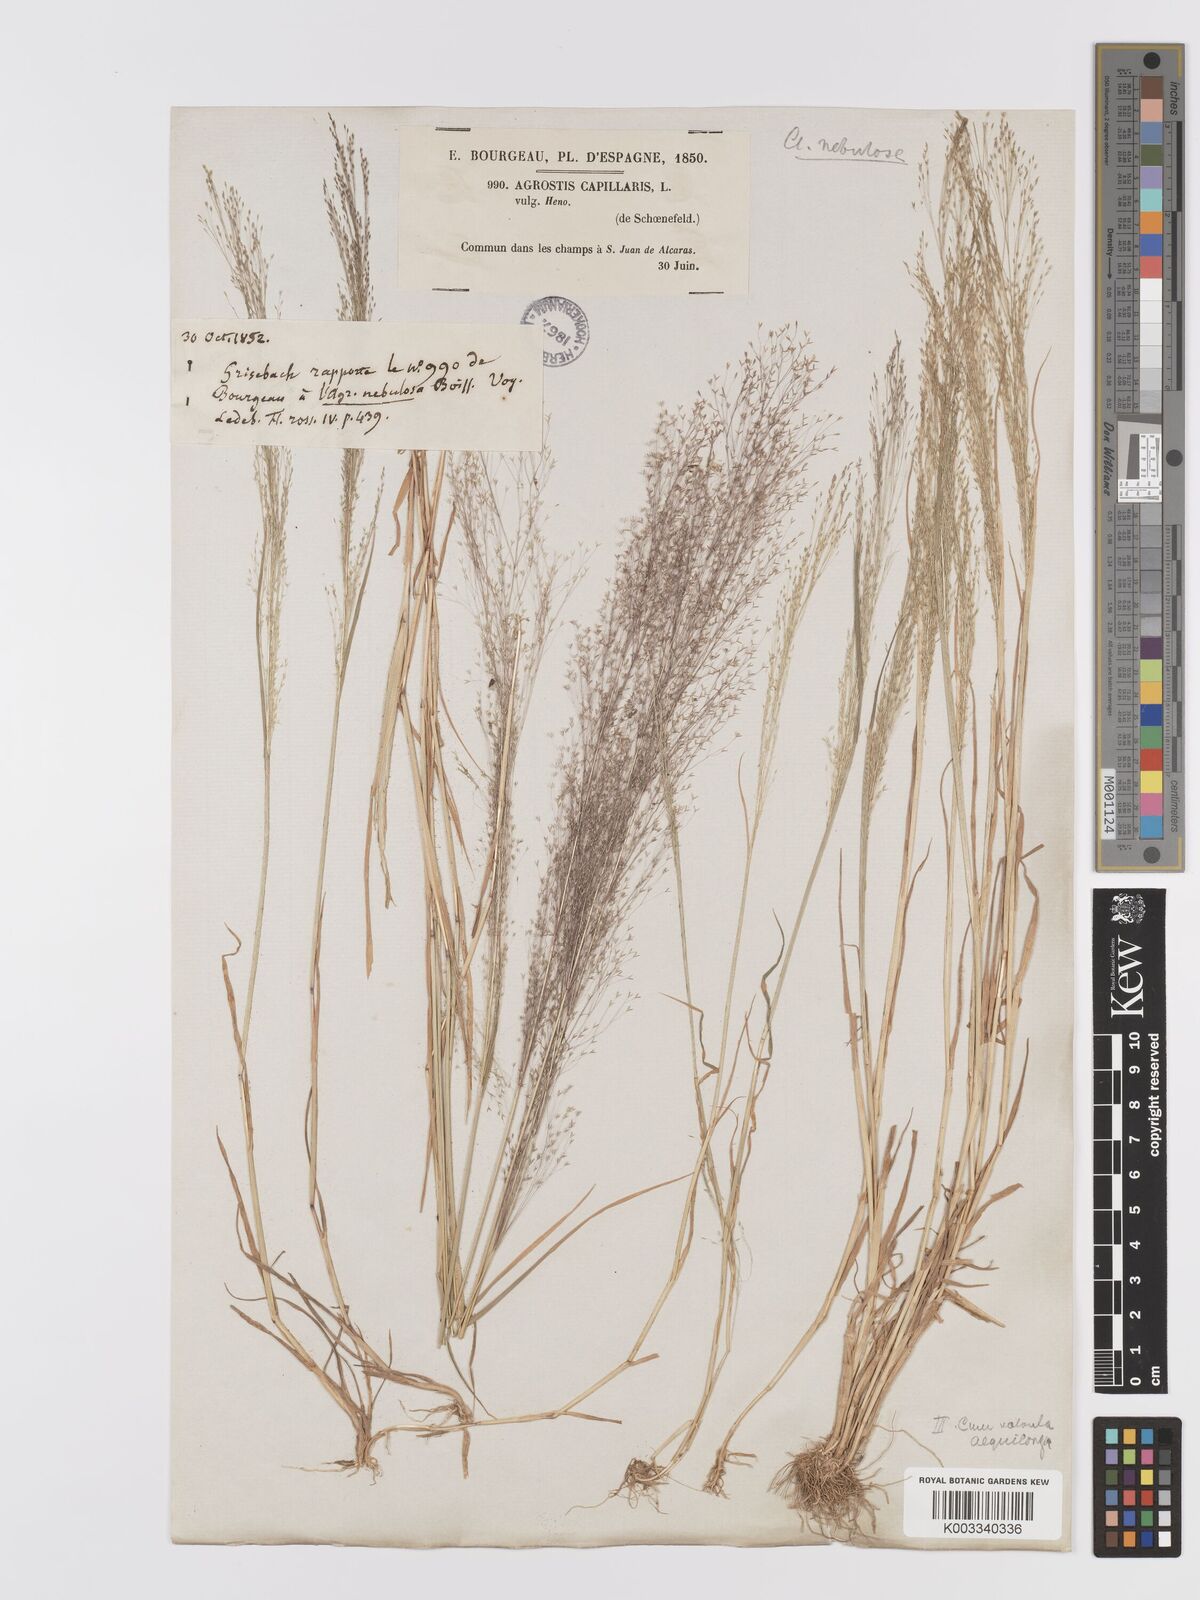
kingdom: Plantae
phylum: Tracheophyta
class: Liliopsida
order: Poales
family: Poaceae
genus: Agrostis
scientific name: Agrostis nebulosa
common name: Cloud grass
